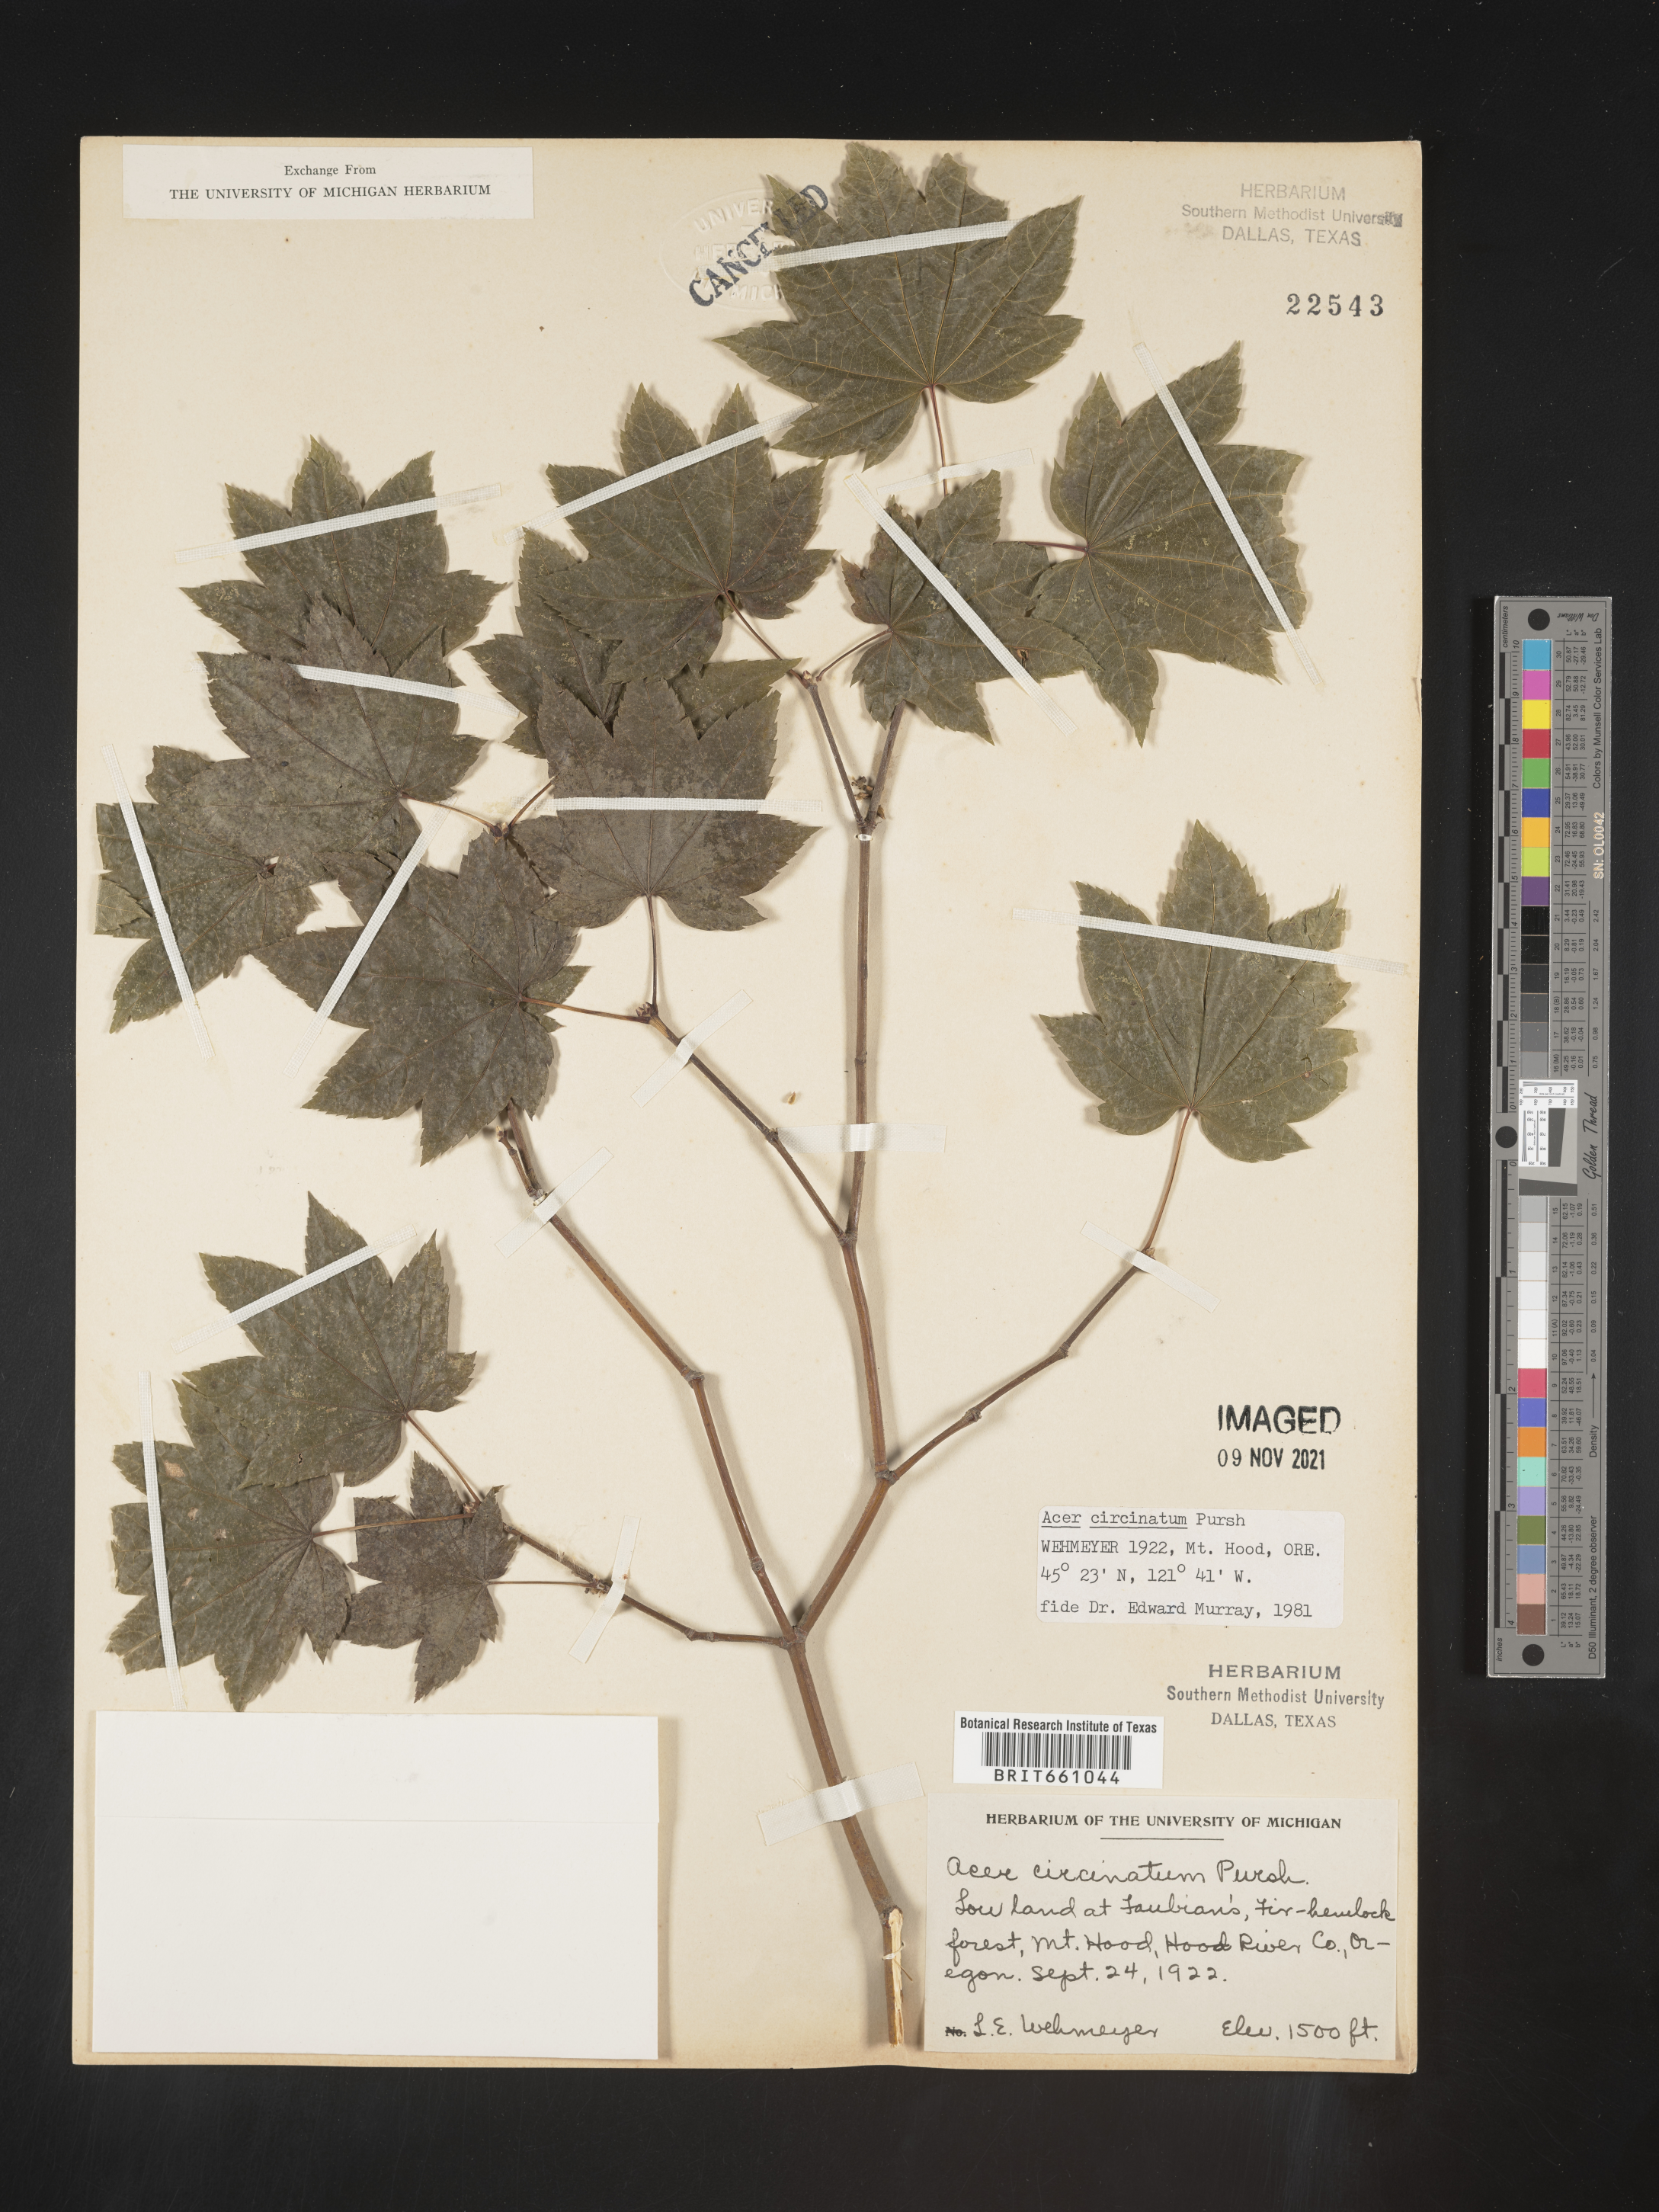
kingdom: Plantae
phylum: Tracheophyta
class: Magnoliopsida
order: Sapindales
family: Sapindaceae
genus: Acer
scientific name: Acer circinatum
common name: Vine maple
